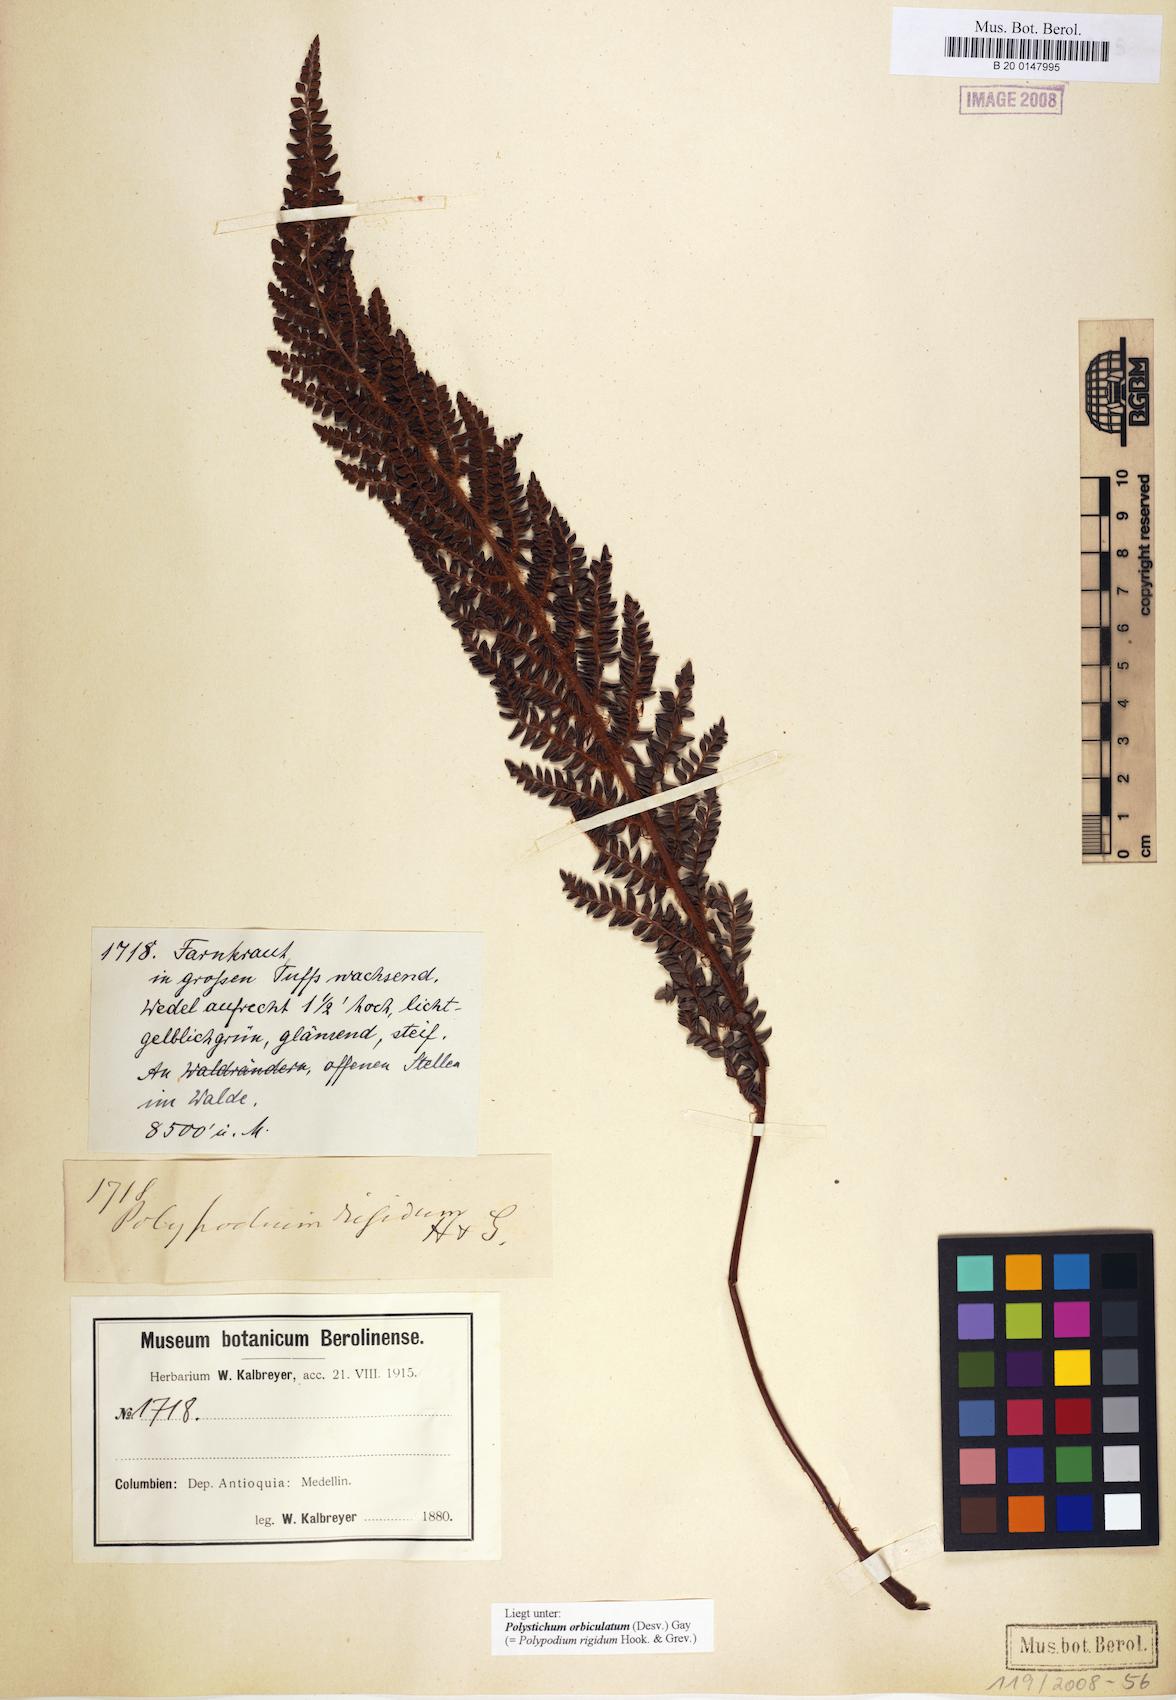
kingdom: Plantae
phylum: Tracheophyta
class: Polypodiopsida
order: Polypodiales
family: Dryopteridaceae
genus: Polystichum
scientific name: Polystichum orbiculatum
